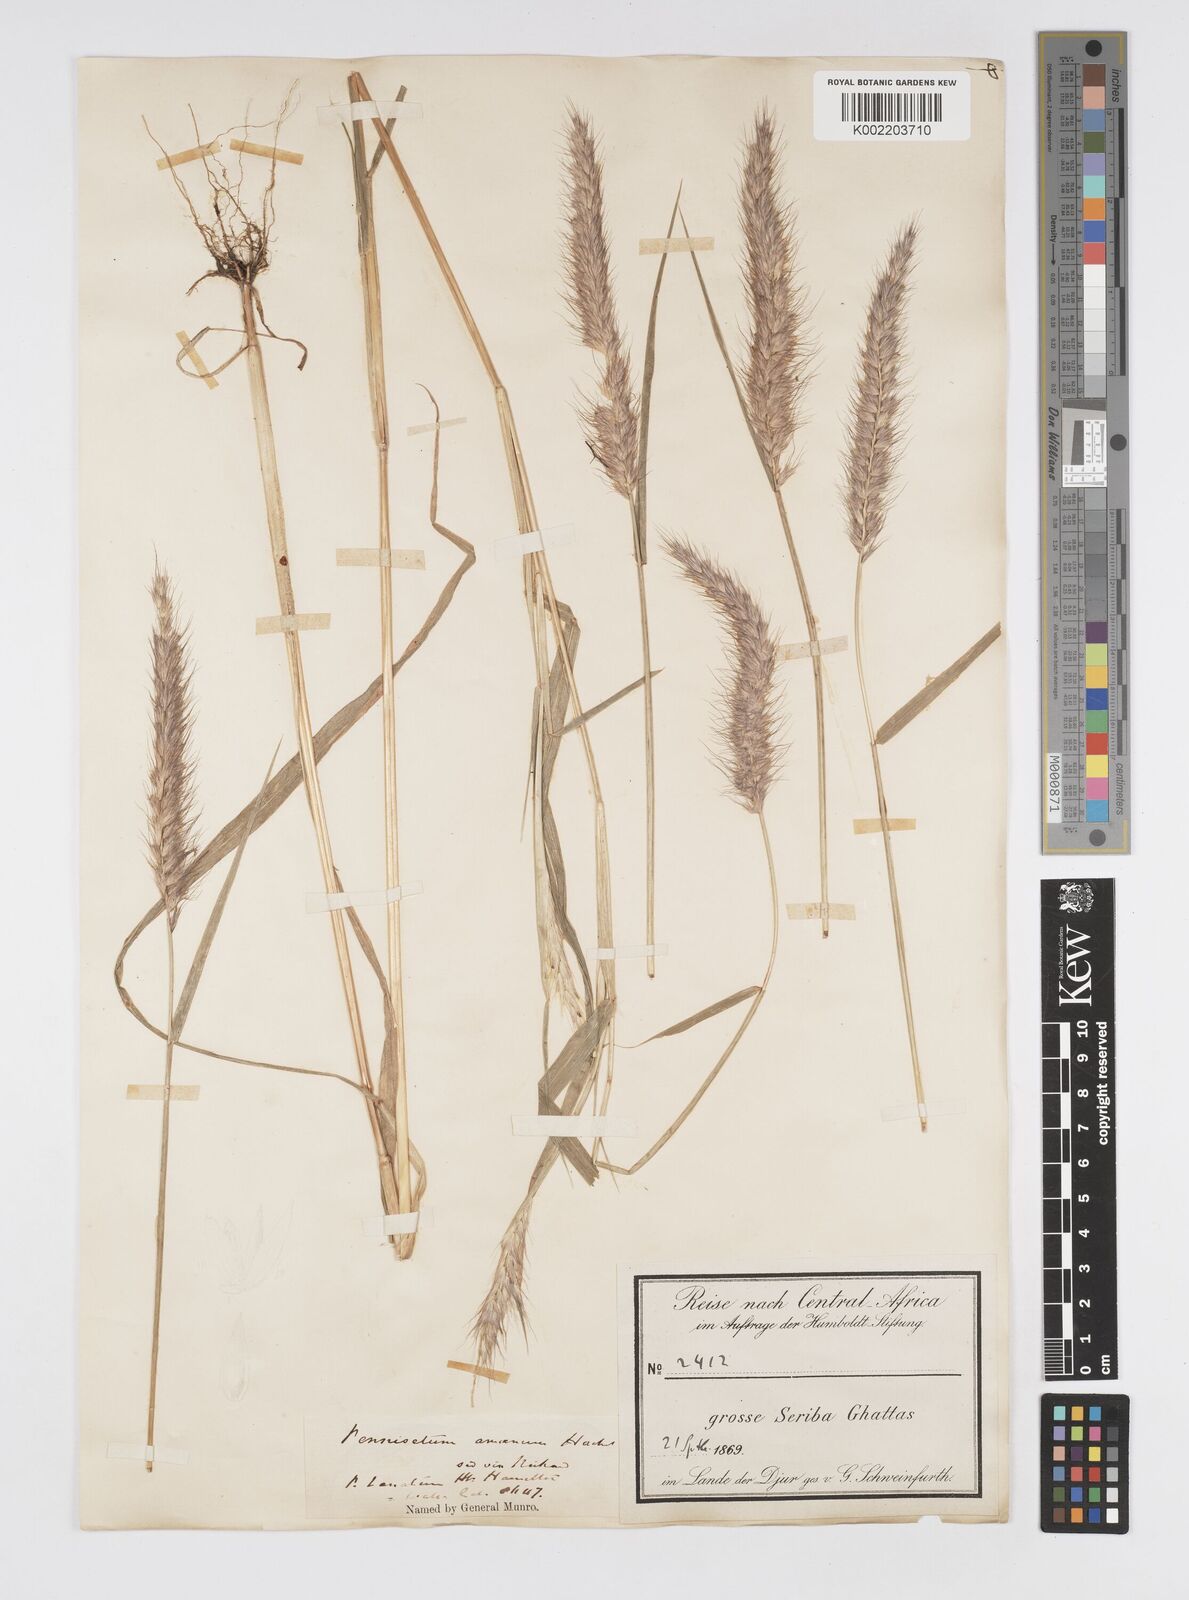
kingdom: Plantae
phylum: Tracheophyta
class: Liliopsida
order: Poales
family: Poaceae
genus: Cenchrus
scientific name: Cenchrus pedicellatus
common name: Hairy fountain grass
